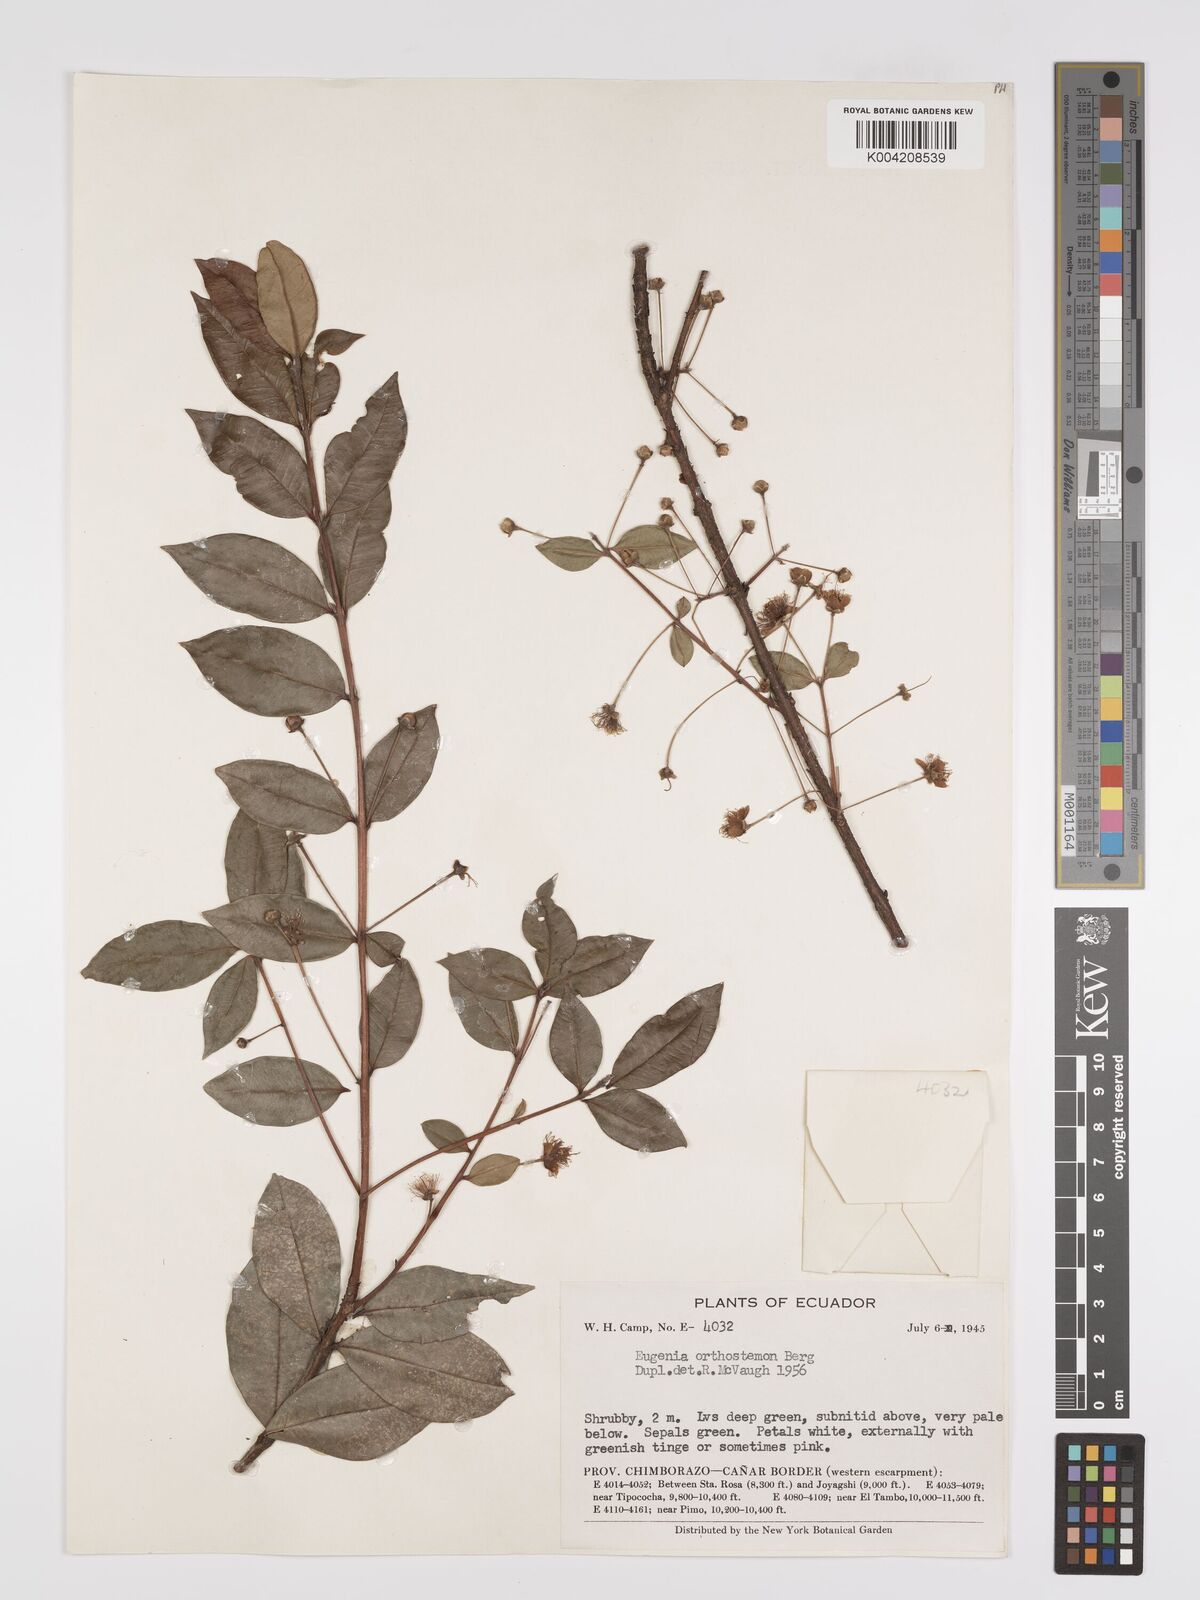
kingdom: Plantae
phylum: Tracheophyta
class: Magnoliopsida
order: Myrtales
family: Myrtaceae
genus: Myrcianthes
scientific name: Myrcianthes orthostemon
